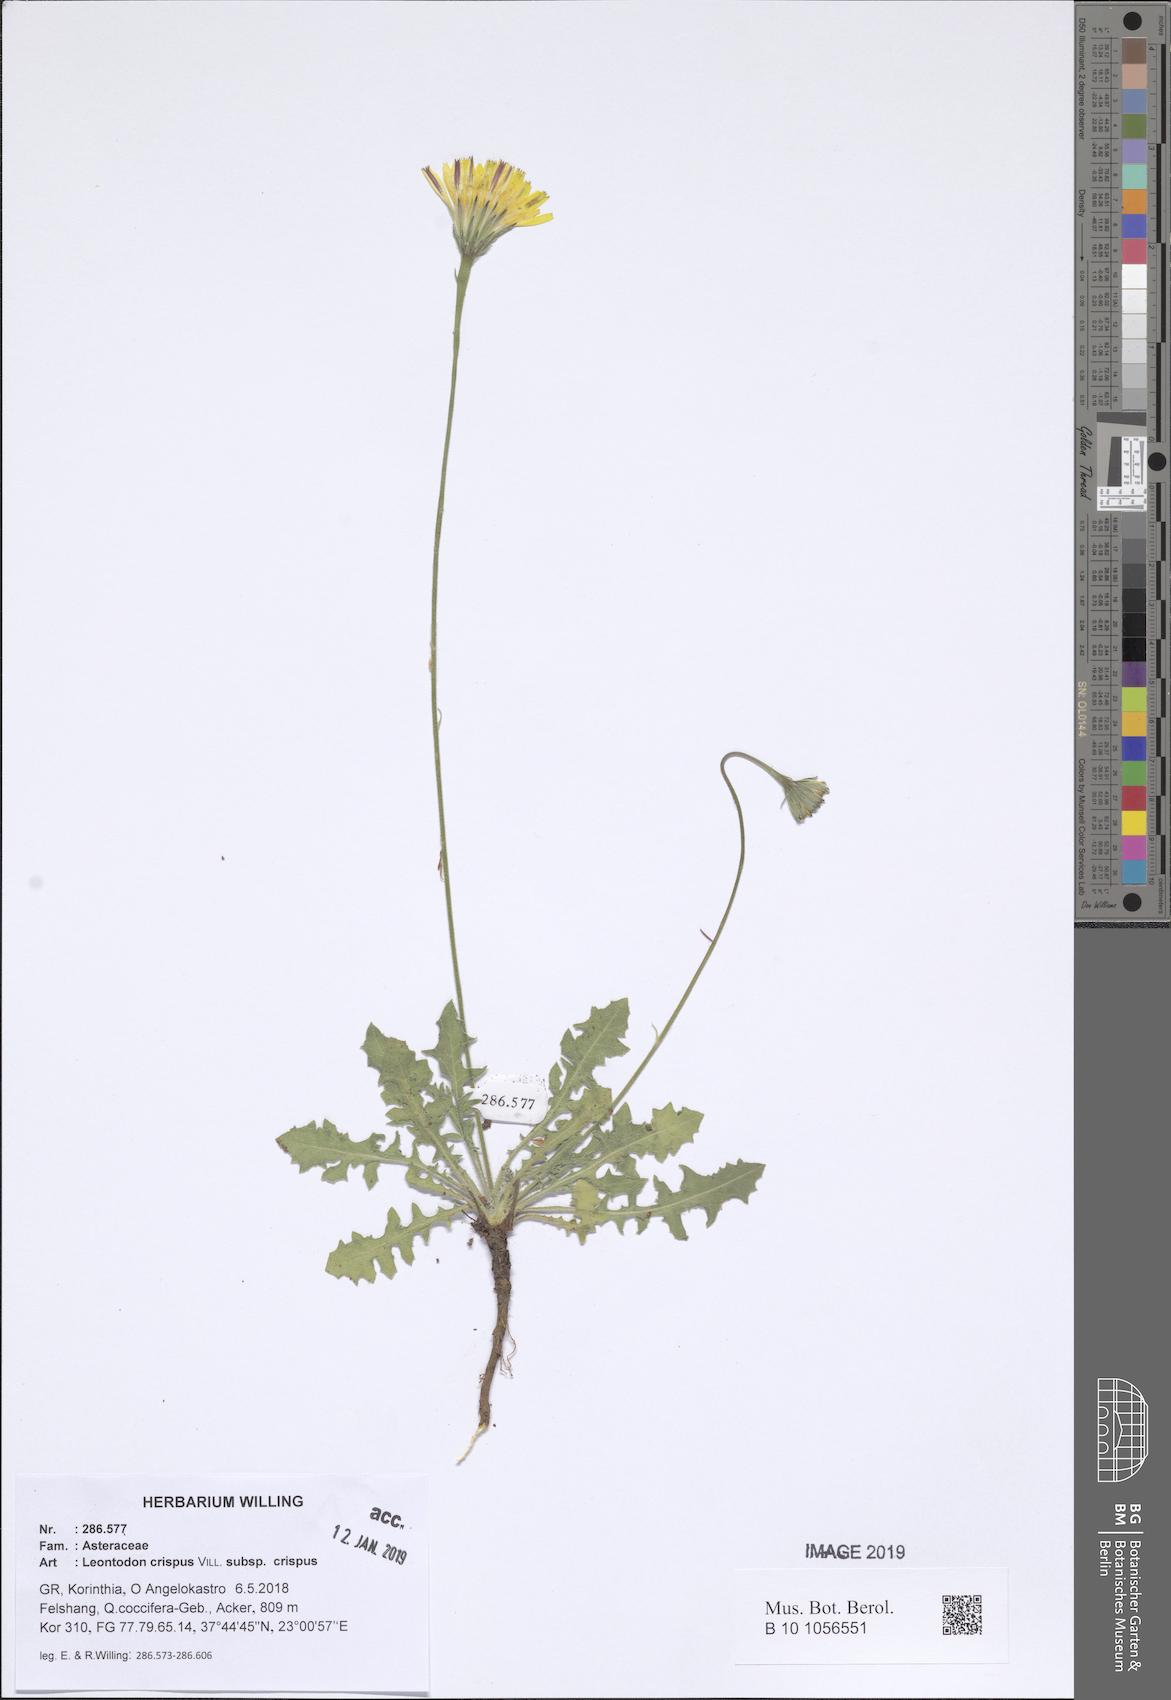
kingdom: Plantae
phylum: Tracheophyta
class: Magnoliopsida
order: Asterales
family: Asteraceae
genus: Leontodon
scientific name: Leontodon hyoseroides
